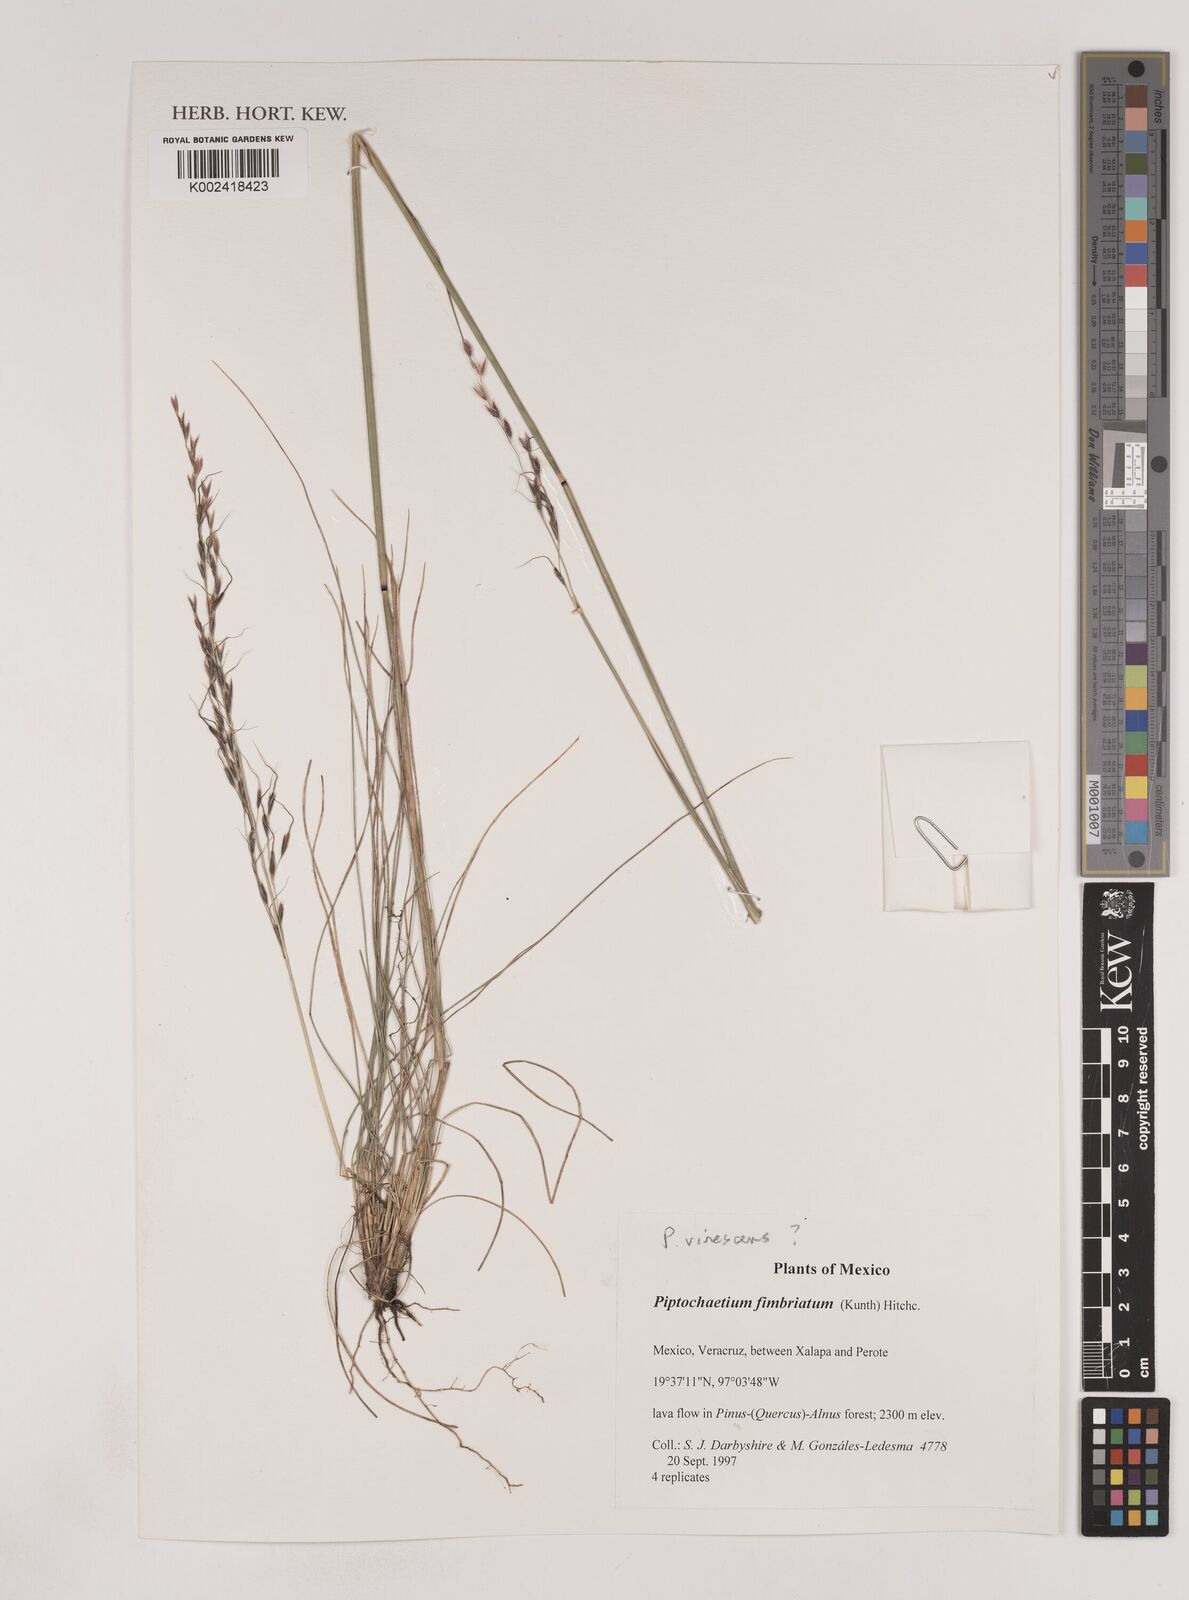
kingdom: Plantae
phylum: Tracheophyta
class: Liliopsida
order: Poales
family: Poaceae
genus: Piptochaetium
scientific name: Piptochaetium virescens
